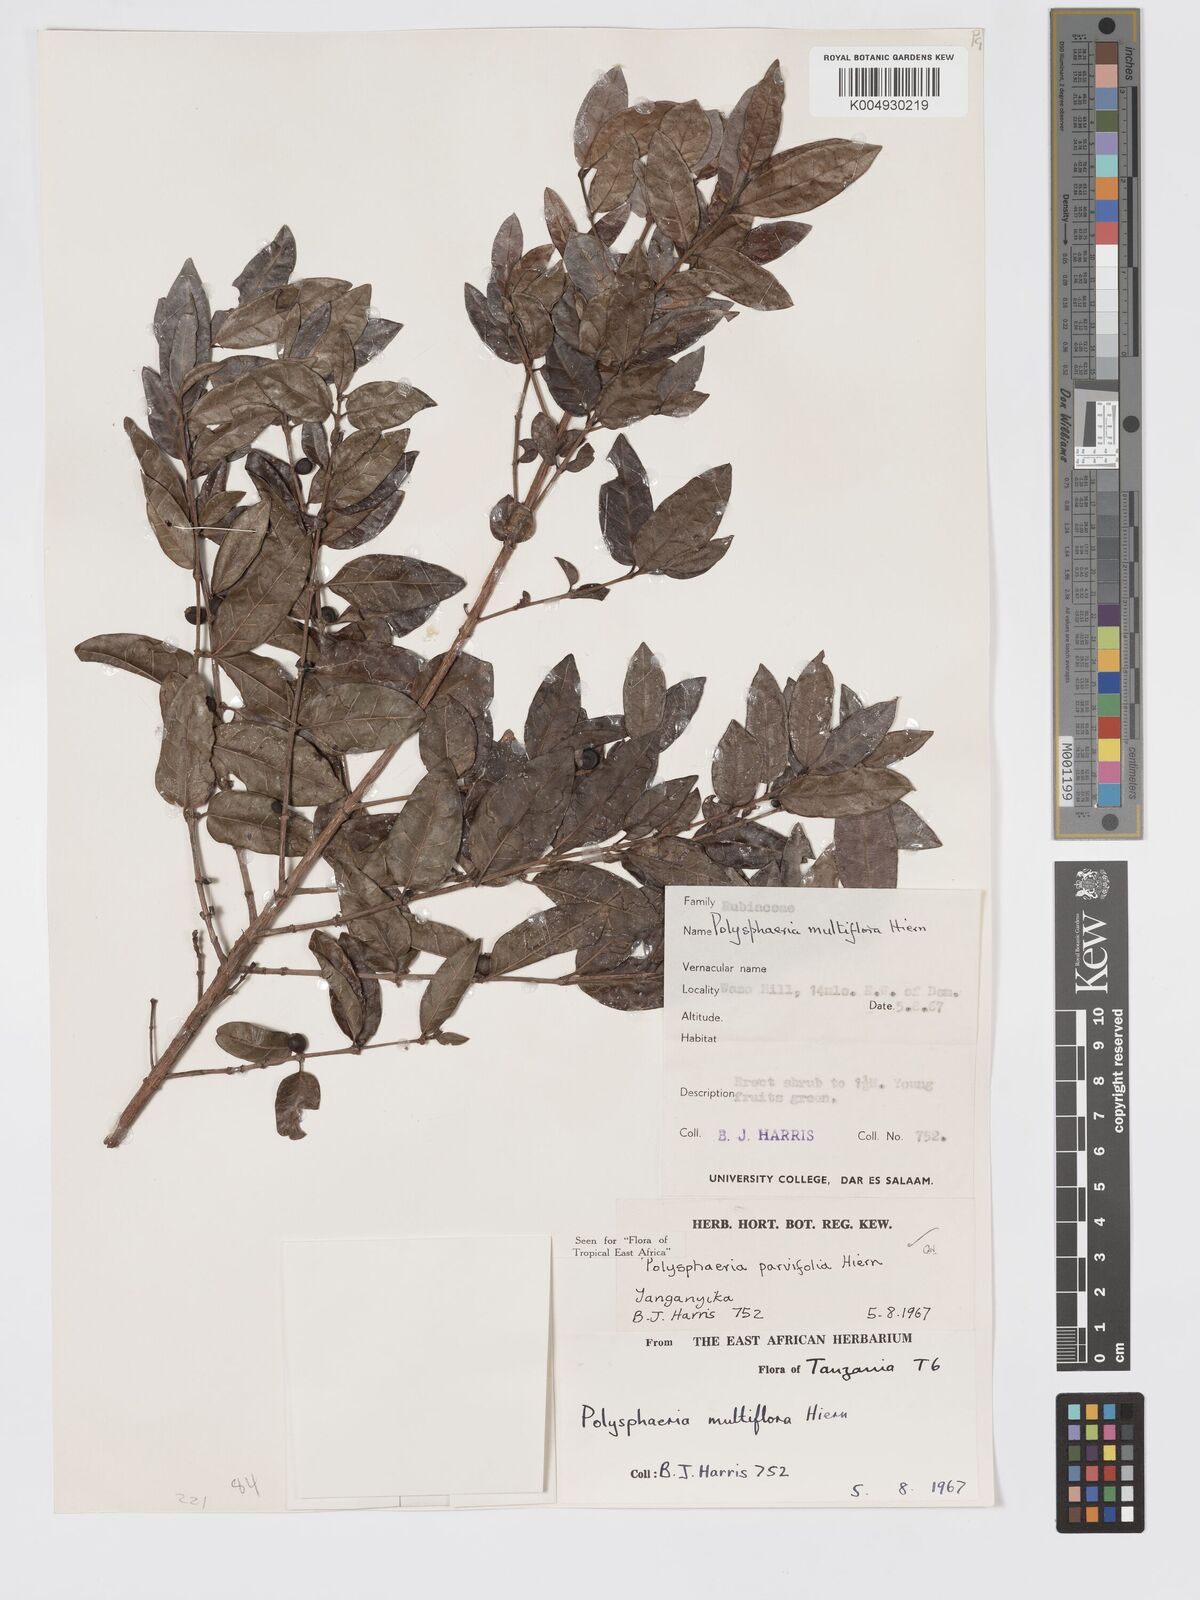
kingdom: Plantae
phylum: Tracheophyta
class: Magnoliopsida
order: Gentianales
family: Rubiaceae
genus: Polysphaeria
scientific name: Polysphaeria parvifolia
